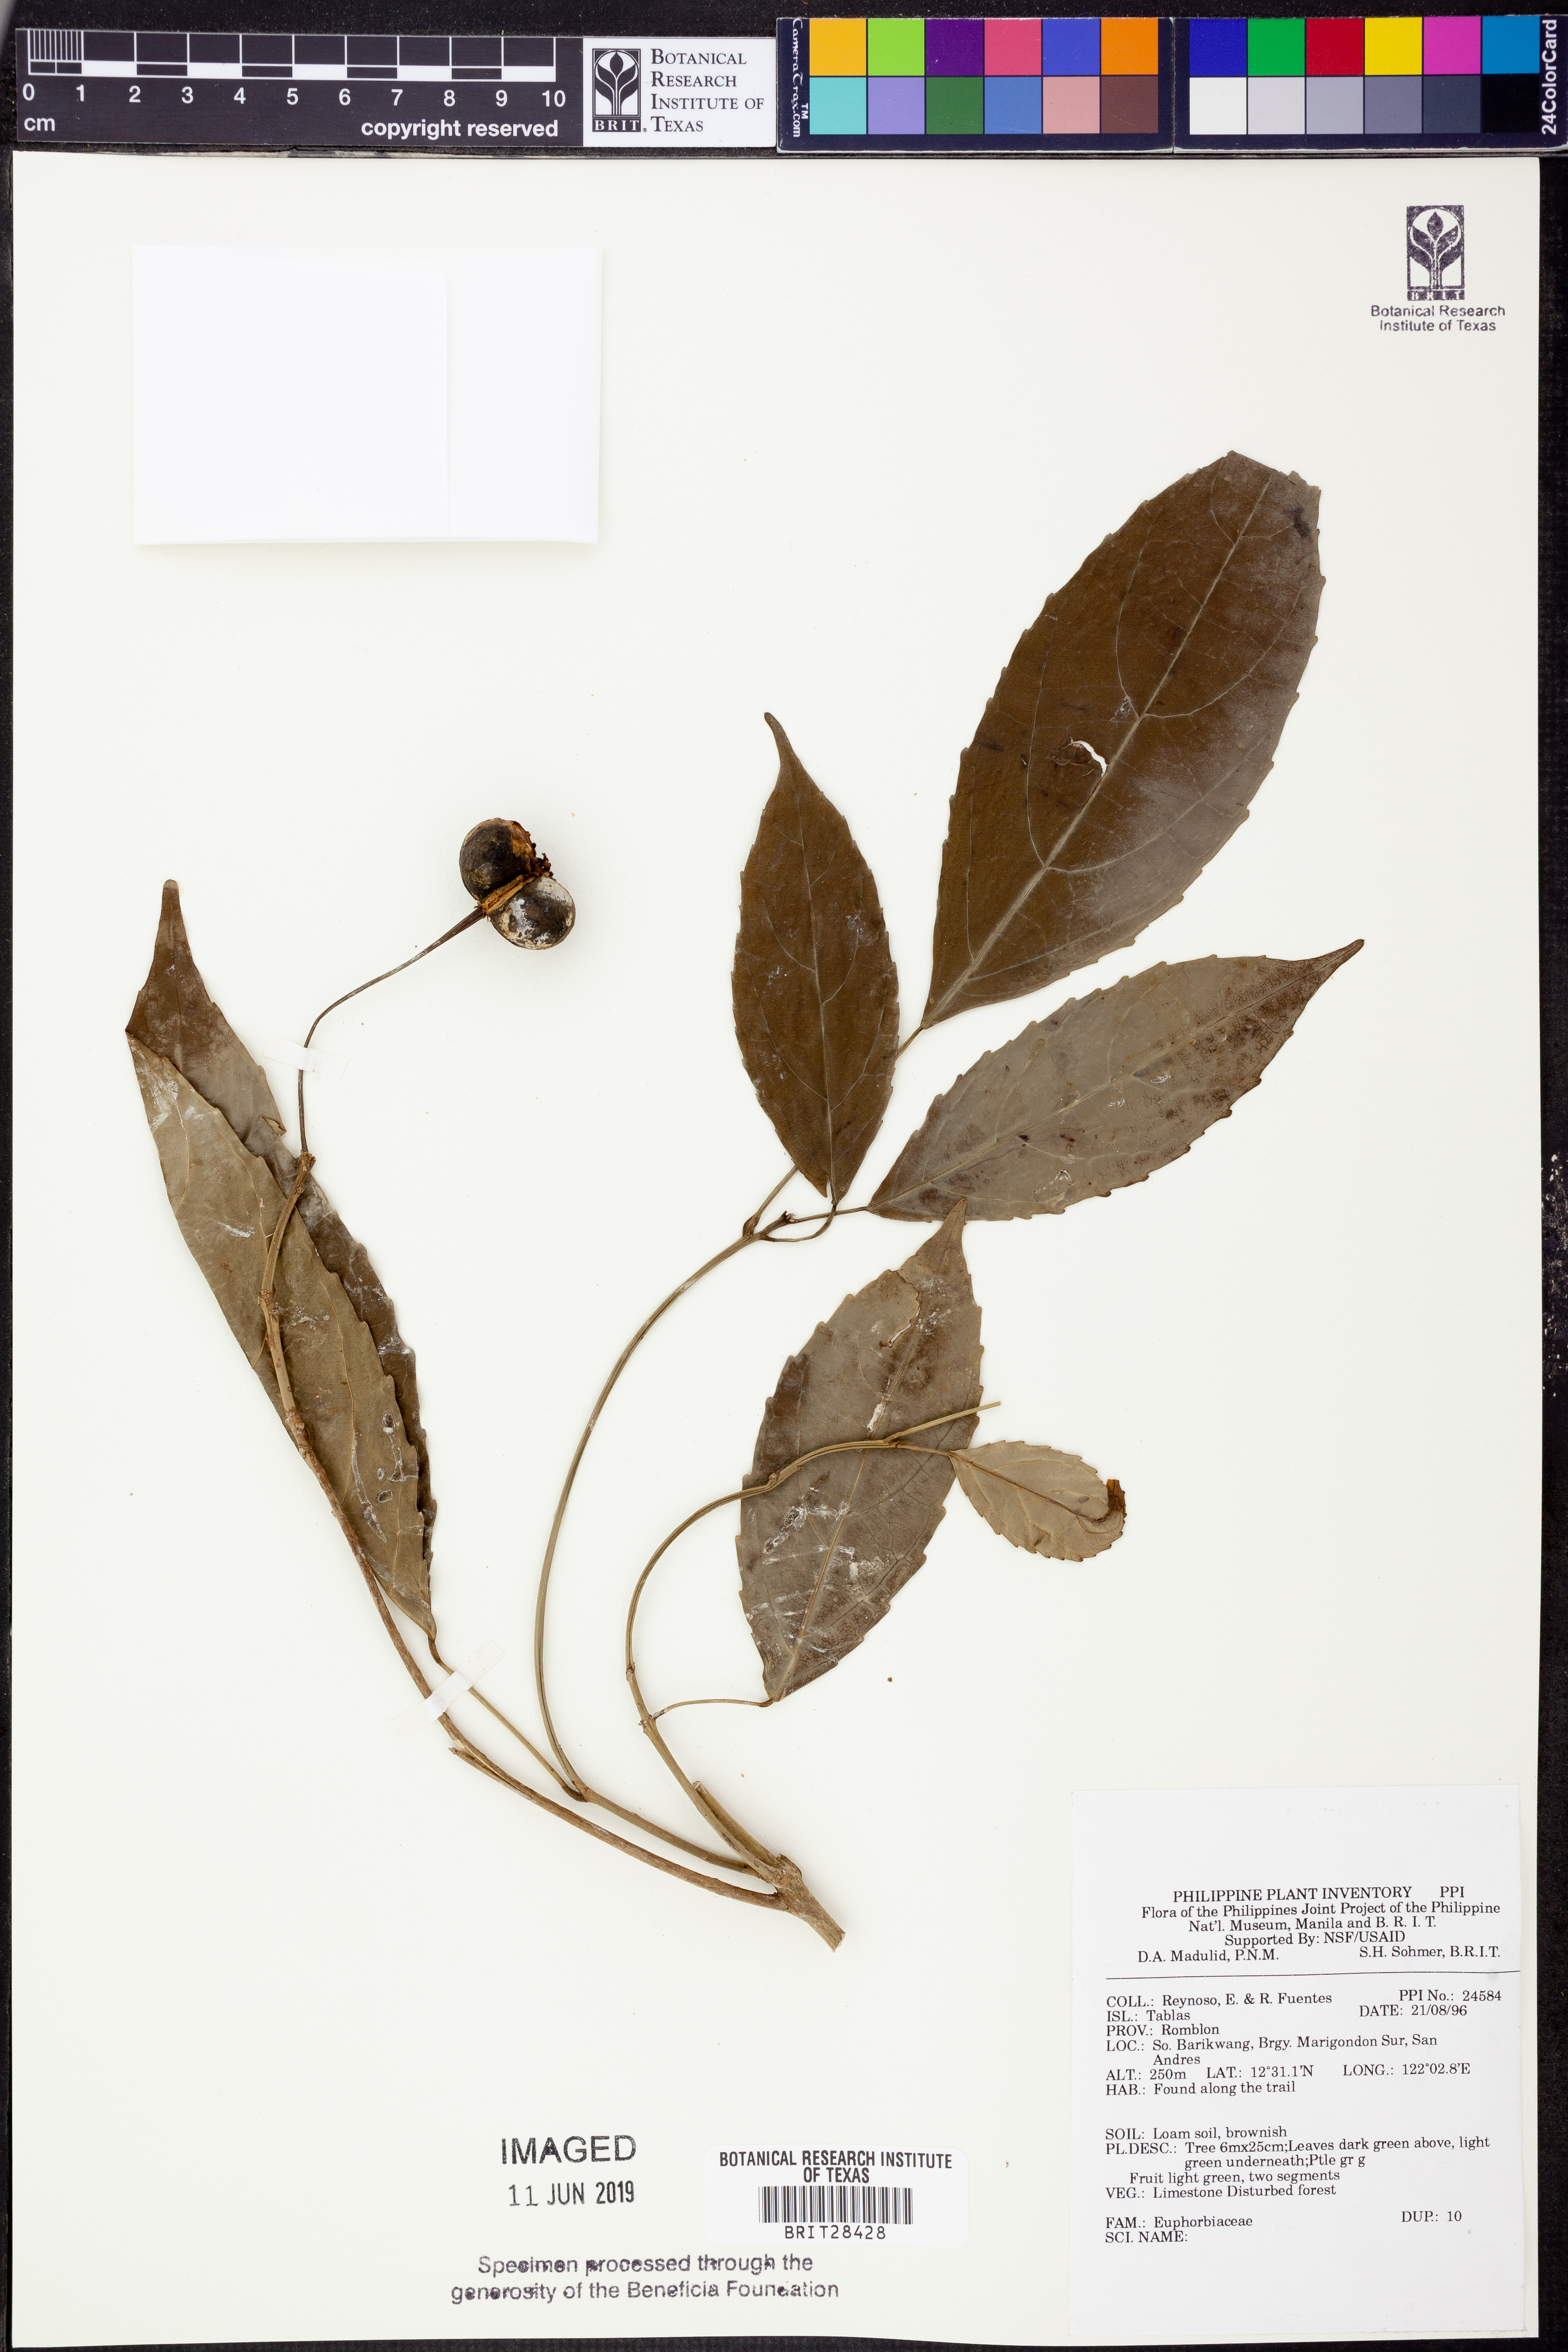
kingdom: Plantae
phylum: Tracheophyta
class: Magnoliopsida
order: Malpighiales
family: Euphorbiaceae
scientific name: Euphorbiaceae
